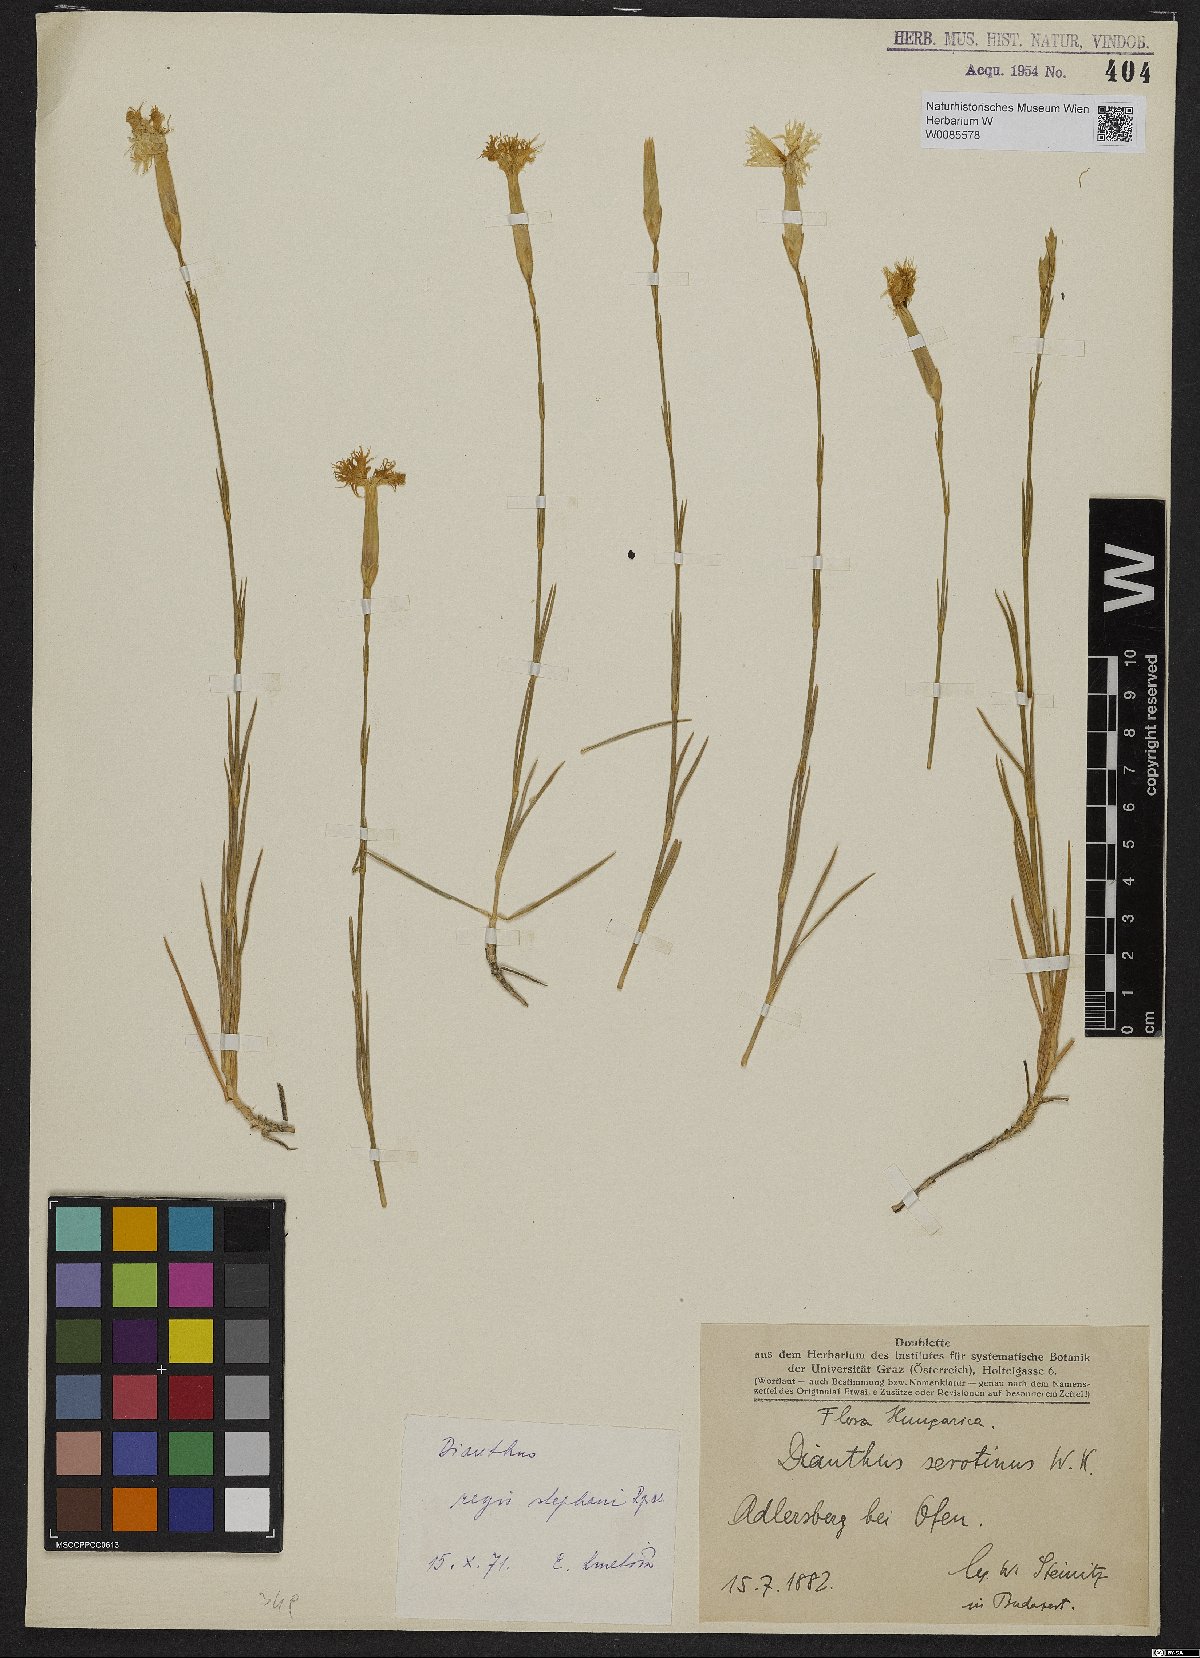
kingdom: Plantae
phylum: Tracheophyta
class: Magnoliopsida
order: Caryophyllales
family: Caryophyllaceae
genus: Dianthus
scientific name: Dianthus plumarius
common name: Pink
